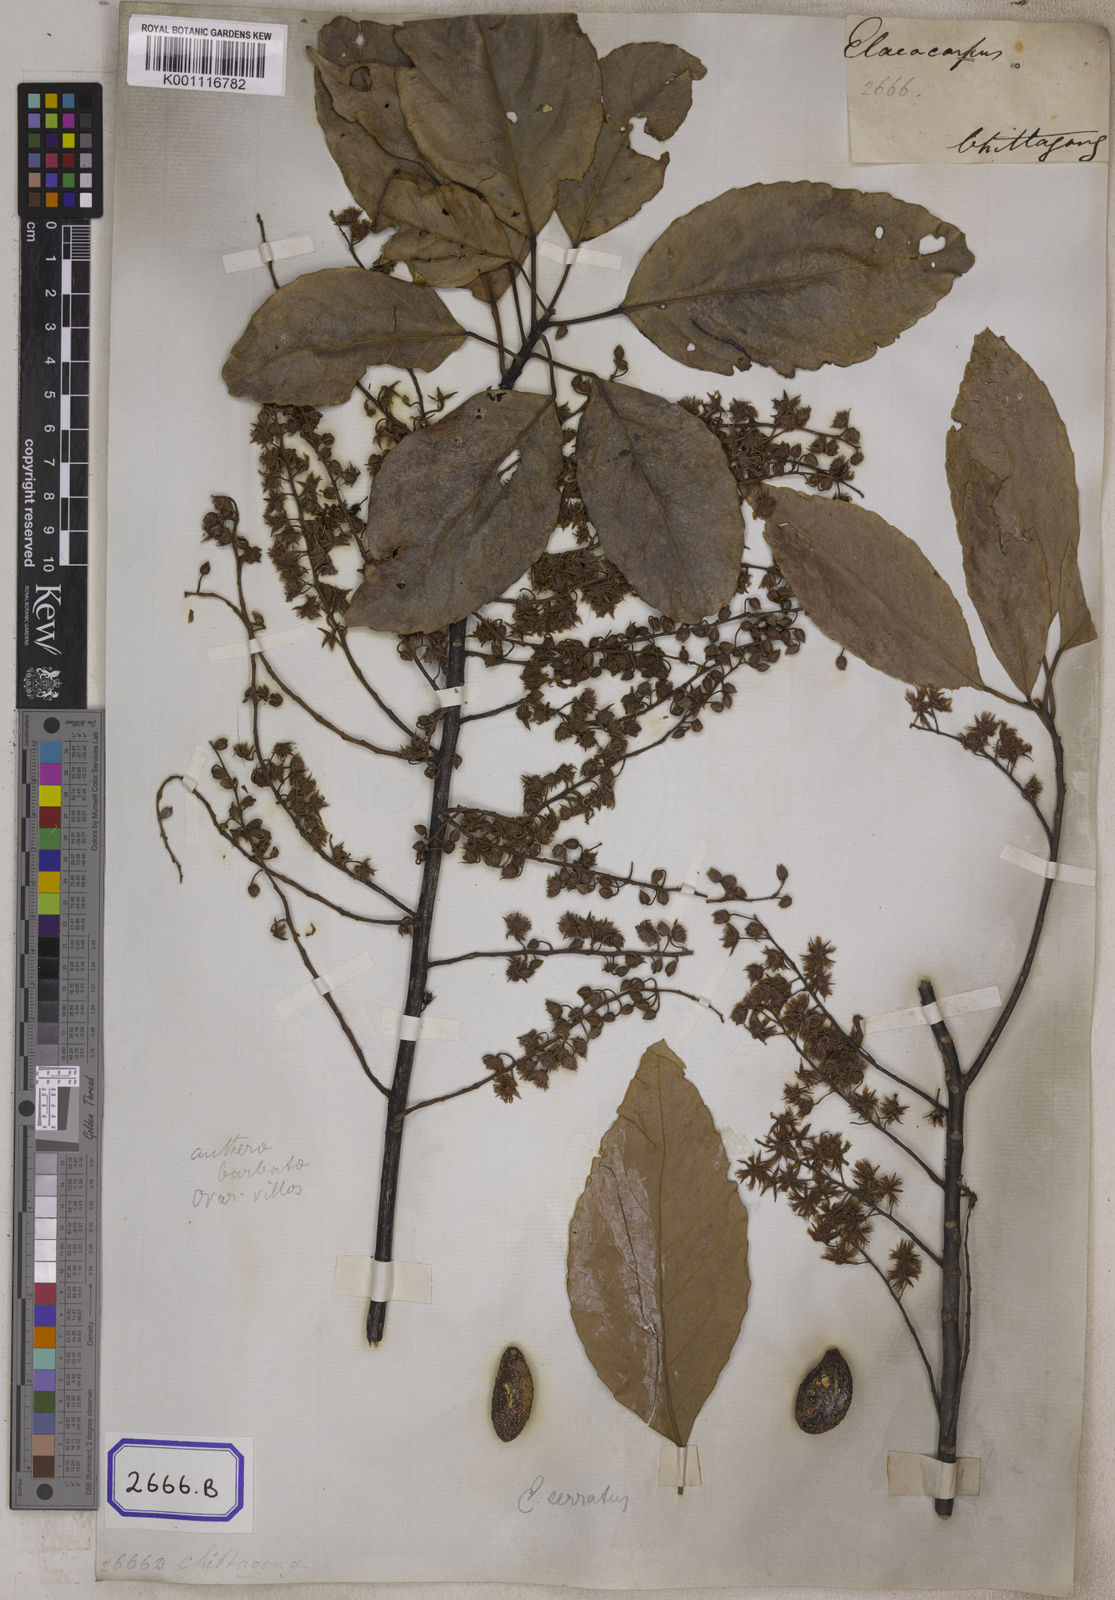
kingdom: Plantae
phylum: Tracheophyta
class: Magnoliopsida
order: Oxalidales
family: Elaeocarpaceae
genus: Elaeocarpus
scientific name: Elaeocarpus serratus
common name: Ceylon-olive
